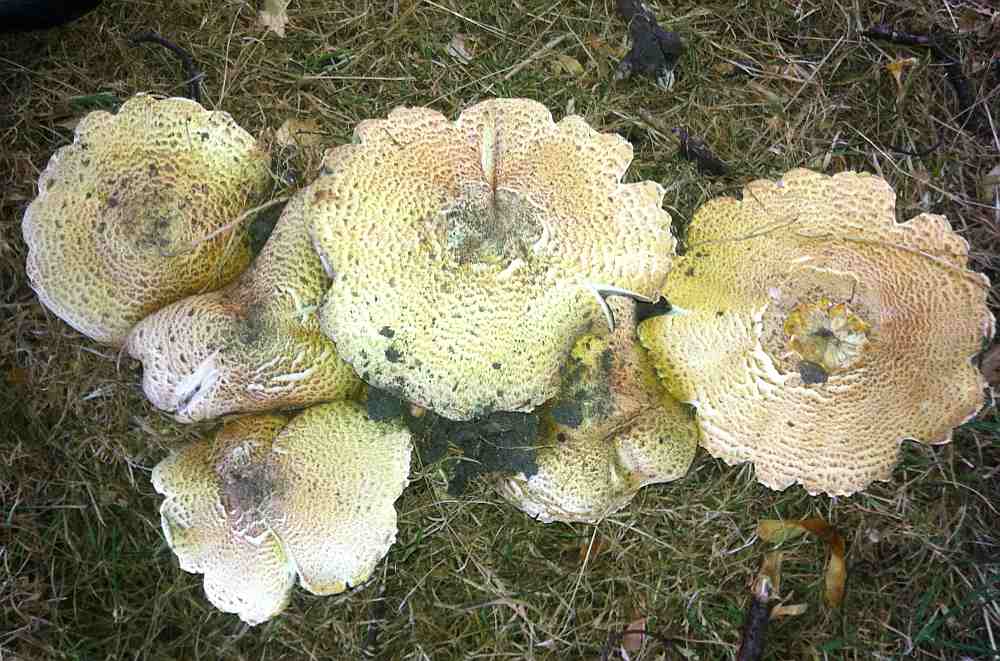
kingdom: Fungi
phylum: Basidiomycota
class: Agaricomycetes
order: Agaricales
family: Agaricaceae
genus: Agaricus
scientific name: Agaricus augustus
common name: prægtig champignon
